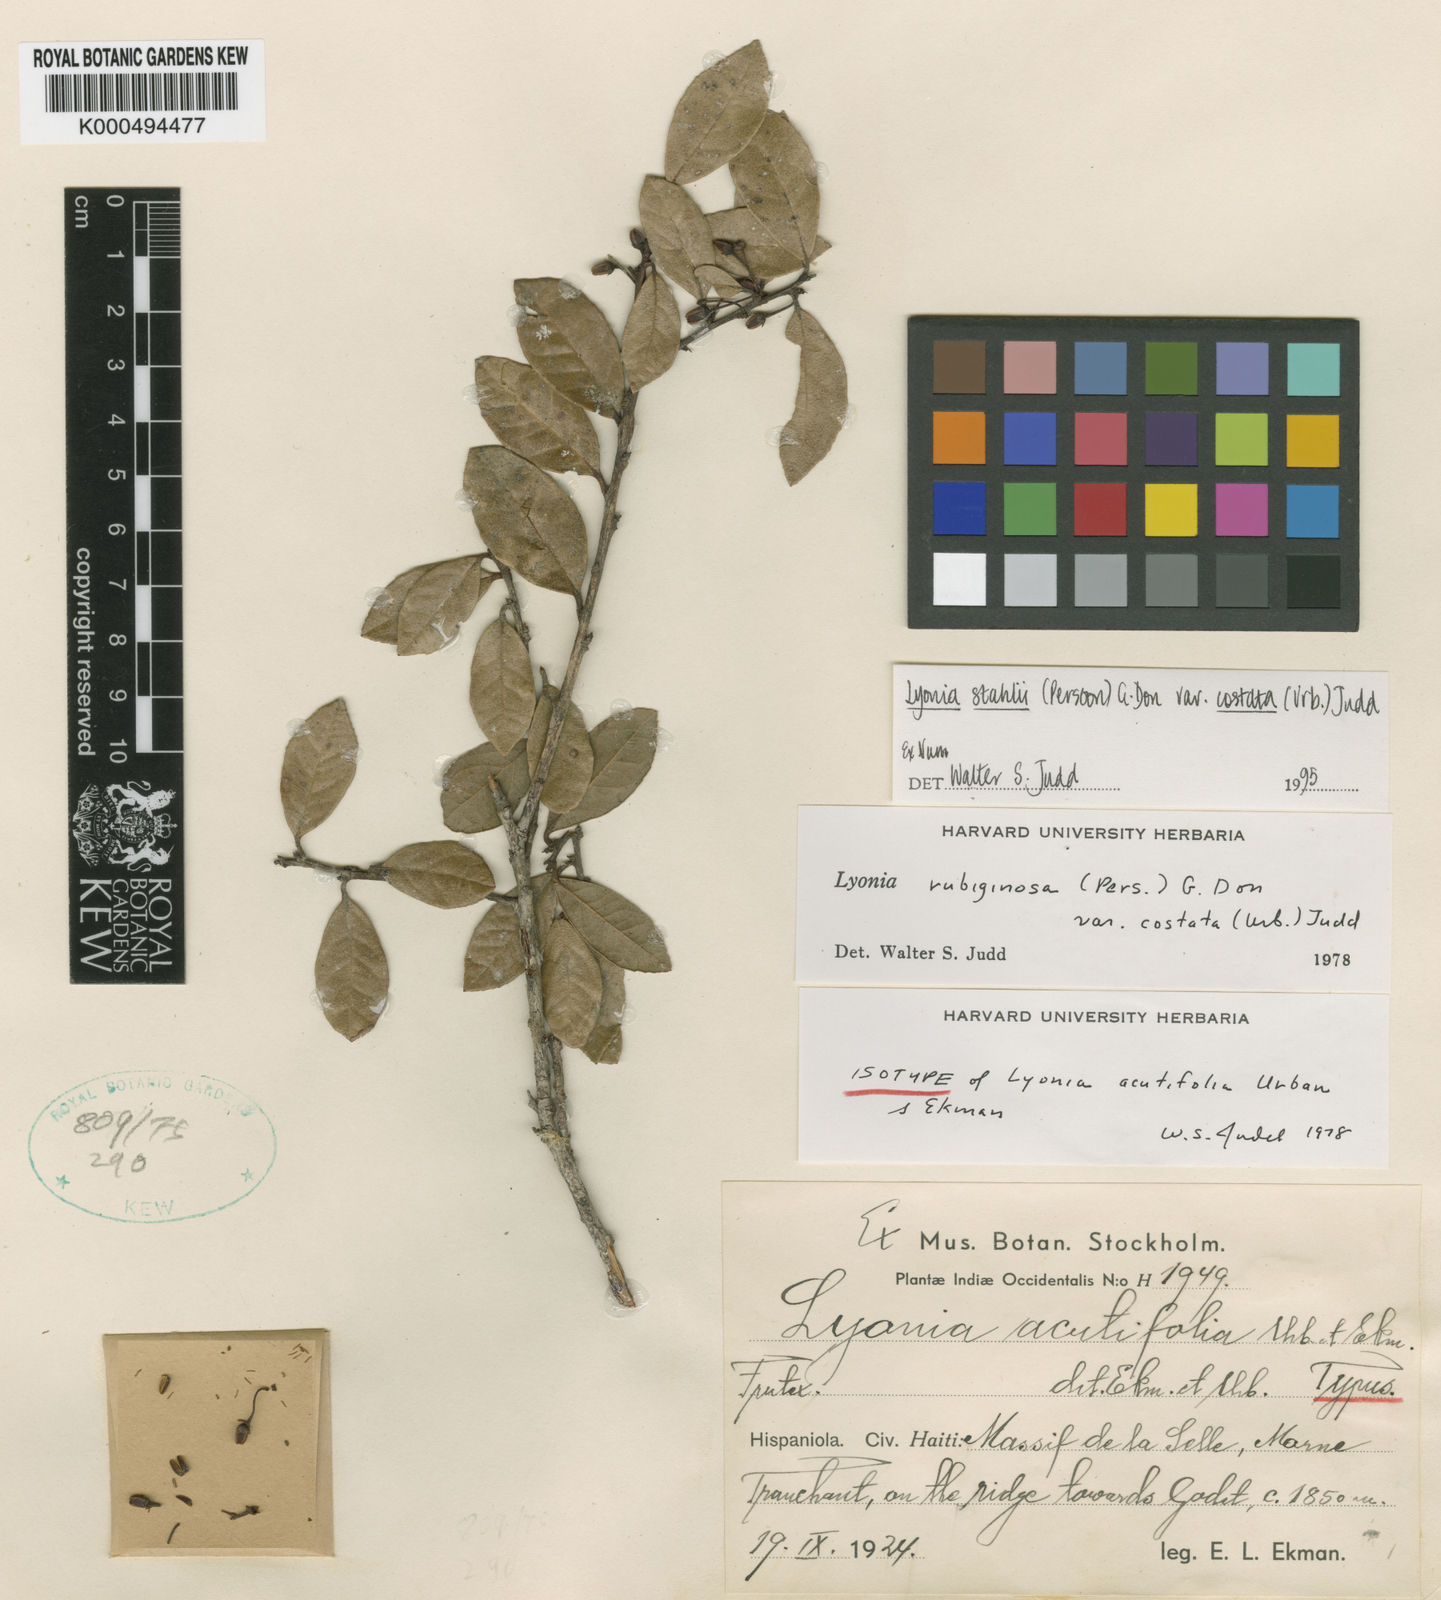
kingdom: Plantae
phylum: Tracheophyta
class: Magnoliopsida
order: Ericales
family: Ericaceae
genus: Lyonia
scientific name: Lyonia stahlii
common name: Stahl's staggerbush
